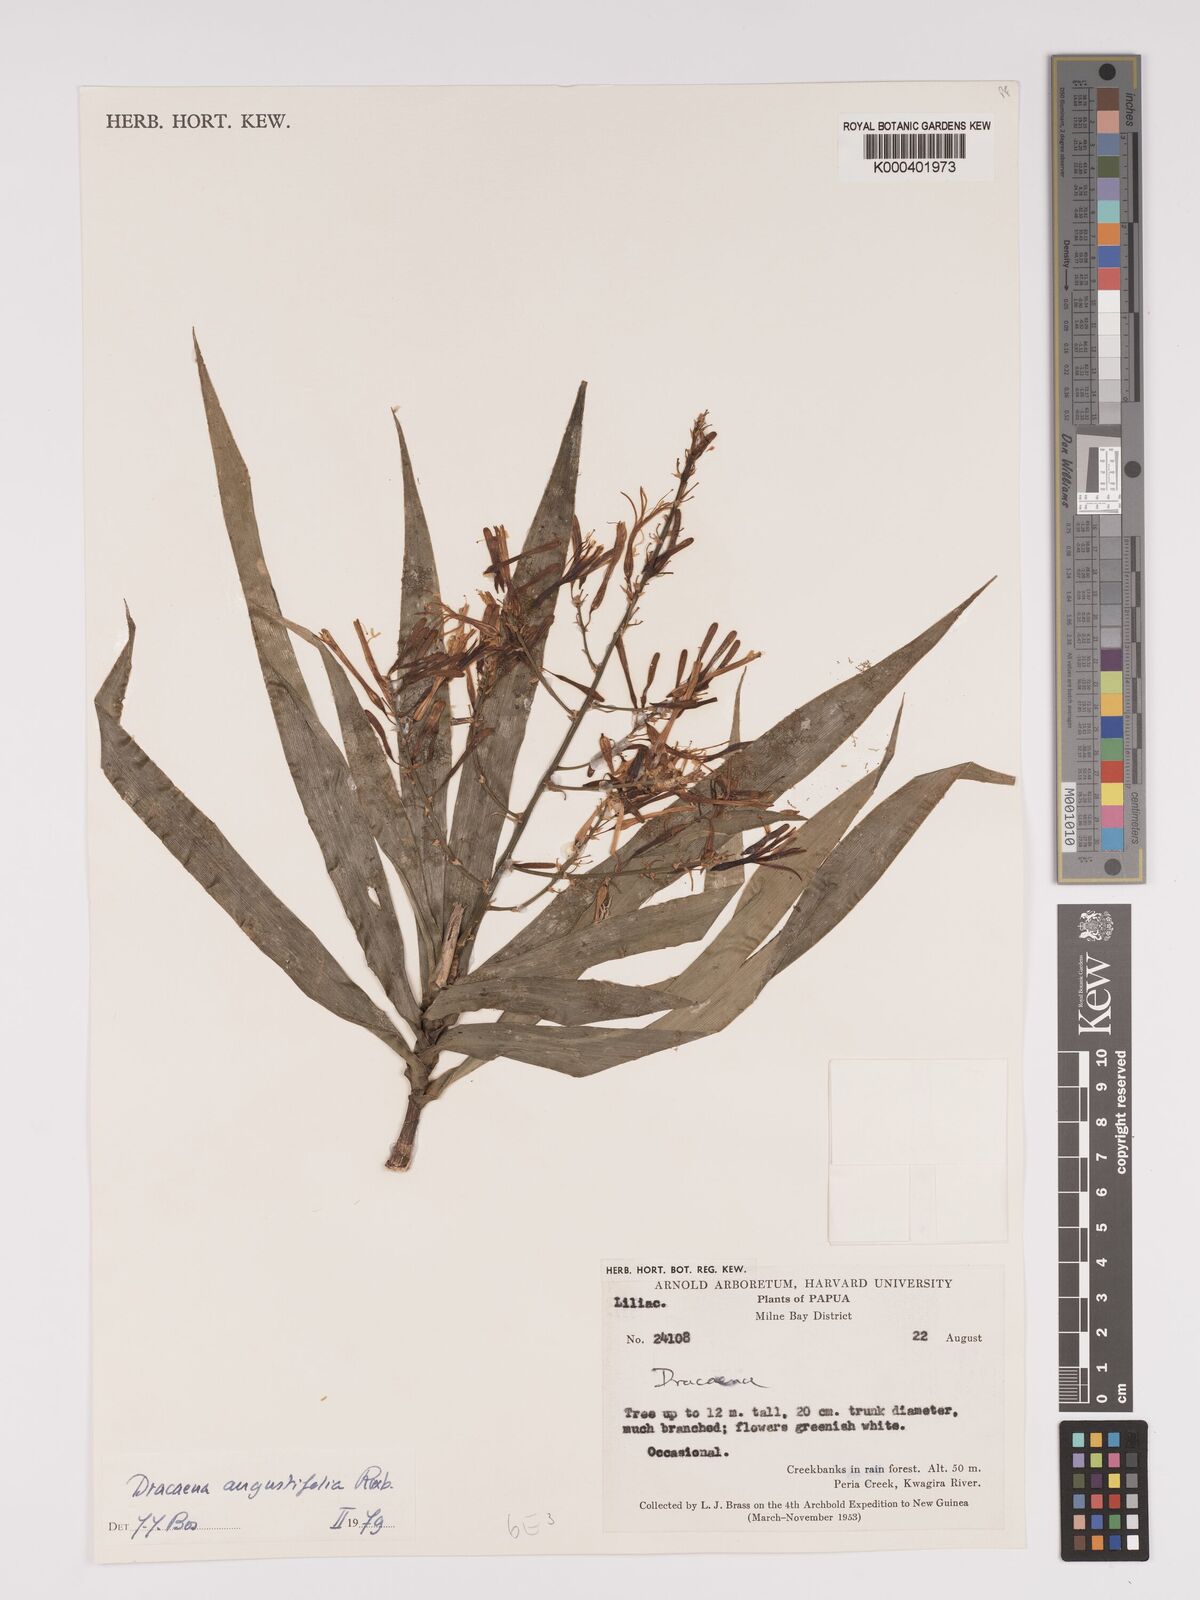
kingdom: Plantae
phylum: Tracheophyta
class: Liliopsida
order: Asparagales
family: Asparagaceae
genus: Dracaena
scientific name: Dracaena angustifolia
